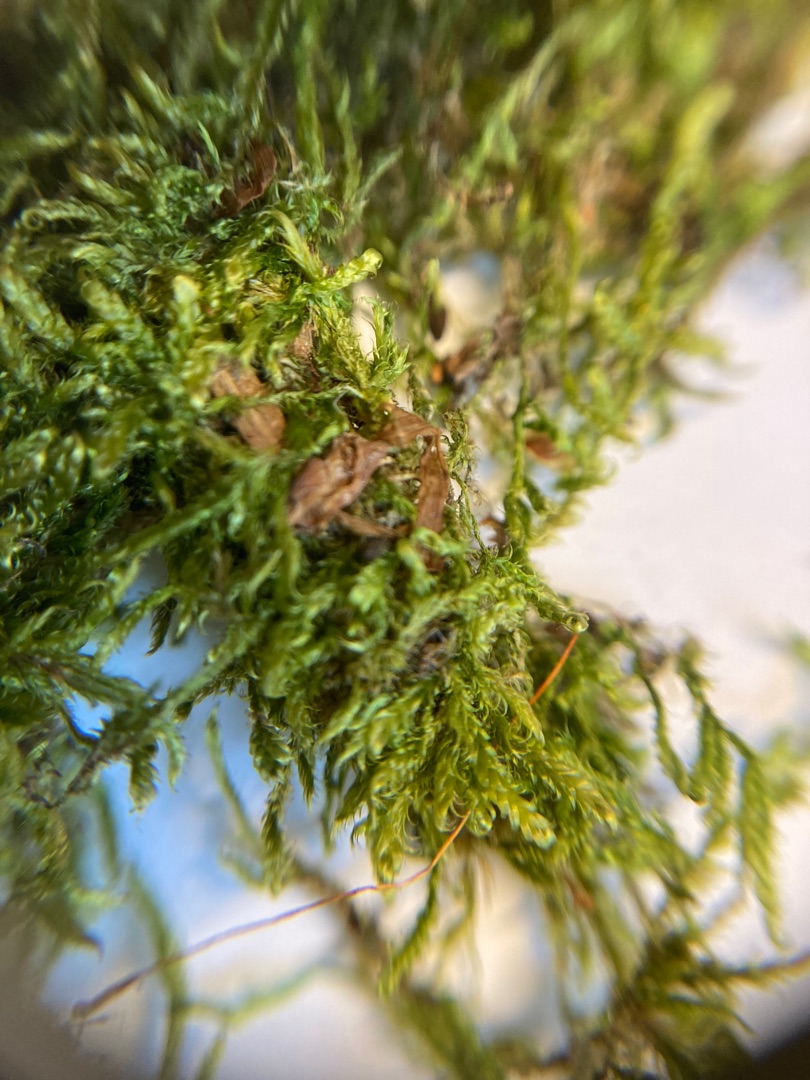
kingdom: Plantae
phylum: Bryophyta
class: Bryopsida
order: Hypnales
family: Hypnaceae
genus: Hypnum
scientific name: Hypnum cupressiforme
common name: Almindelig cypresmos
